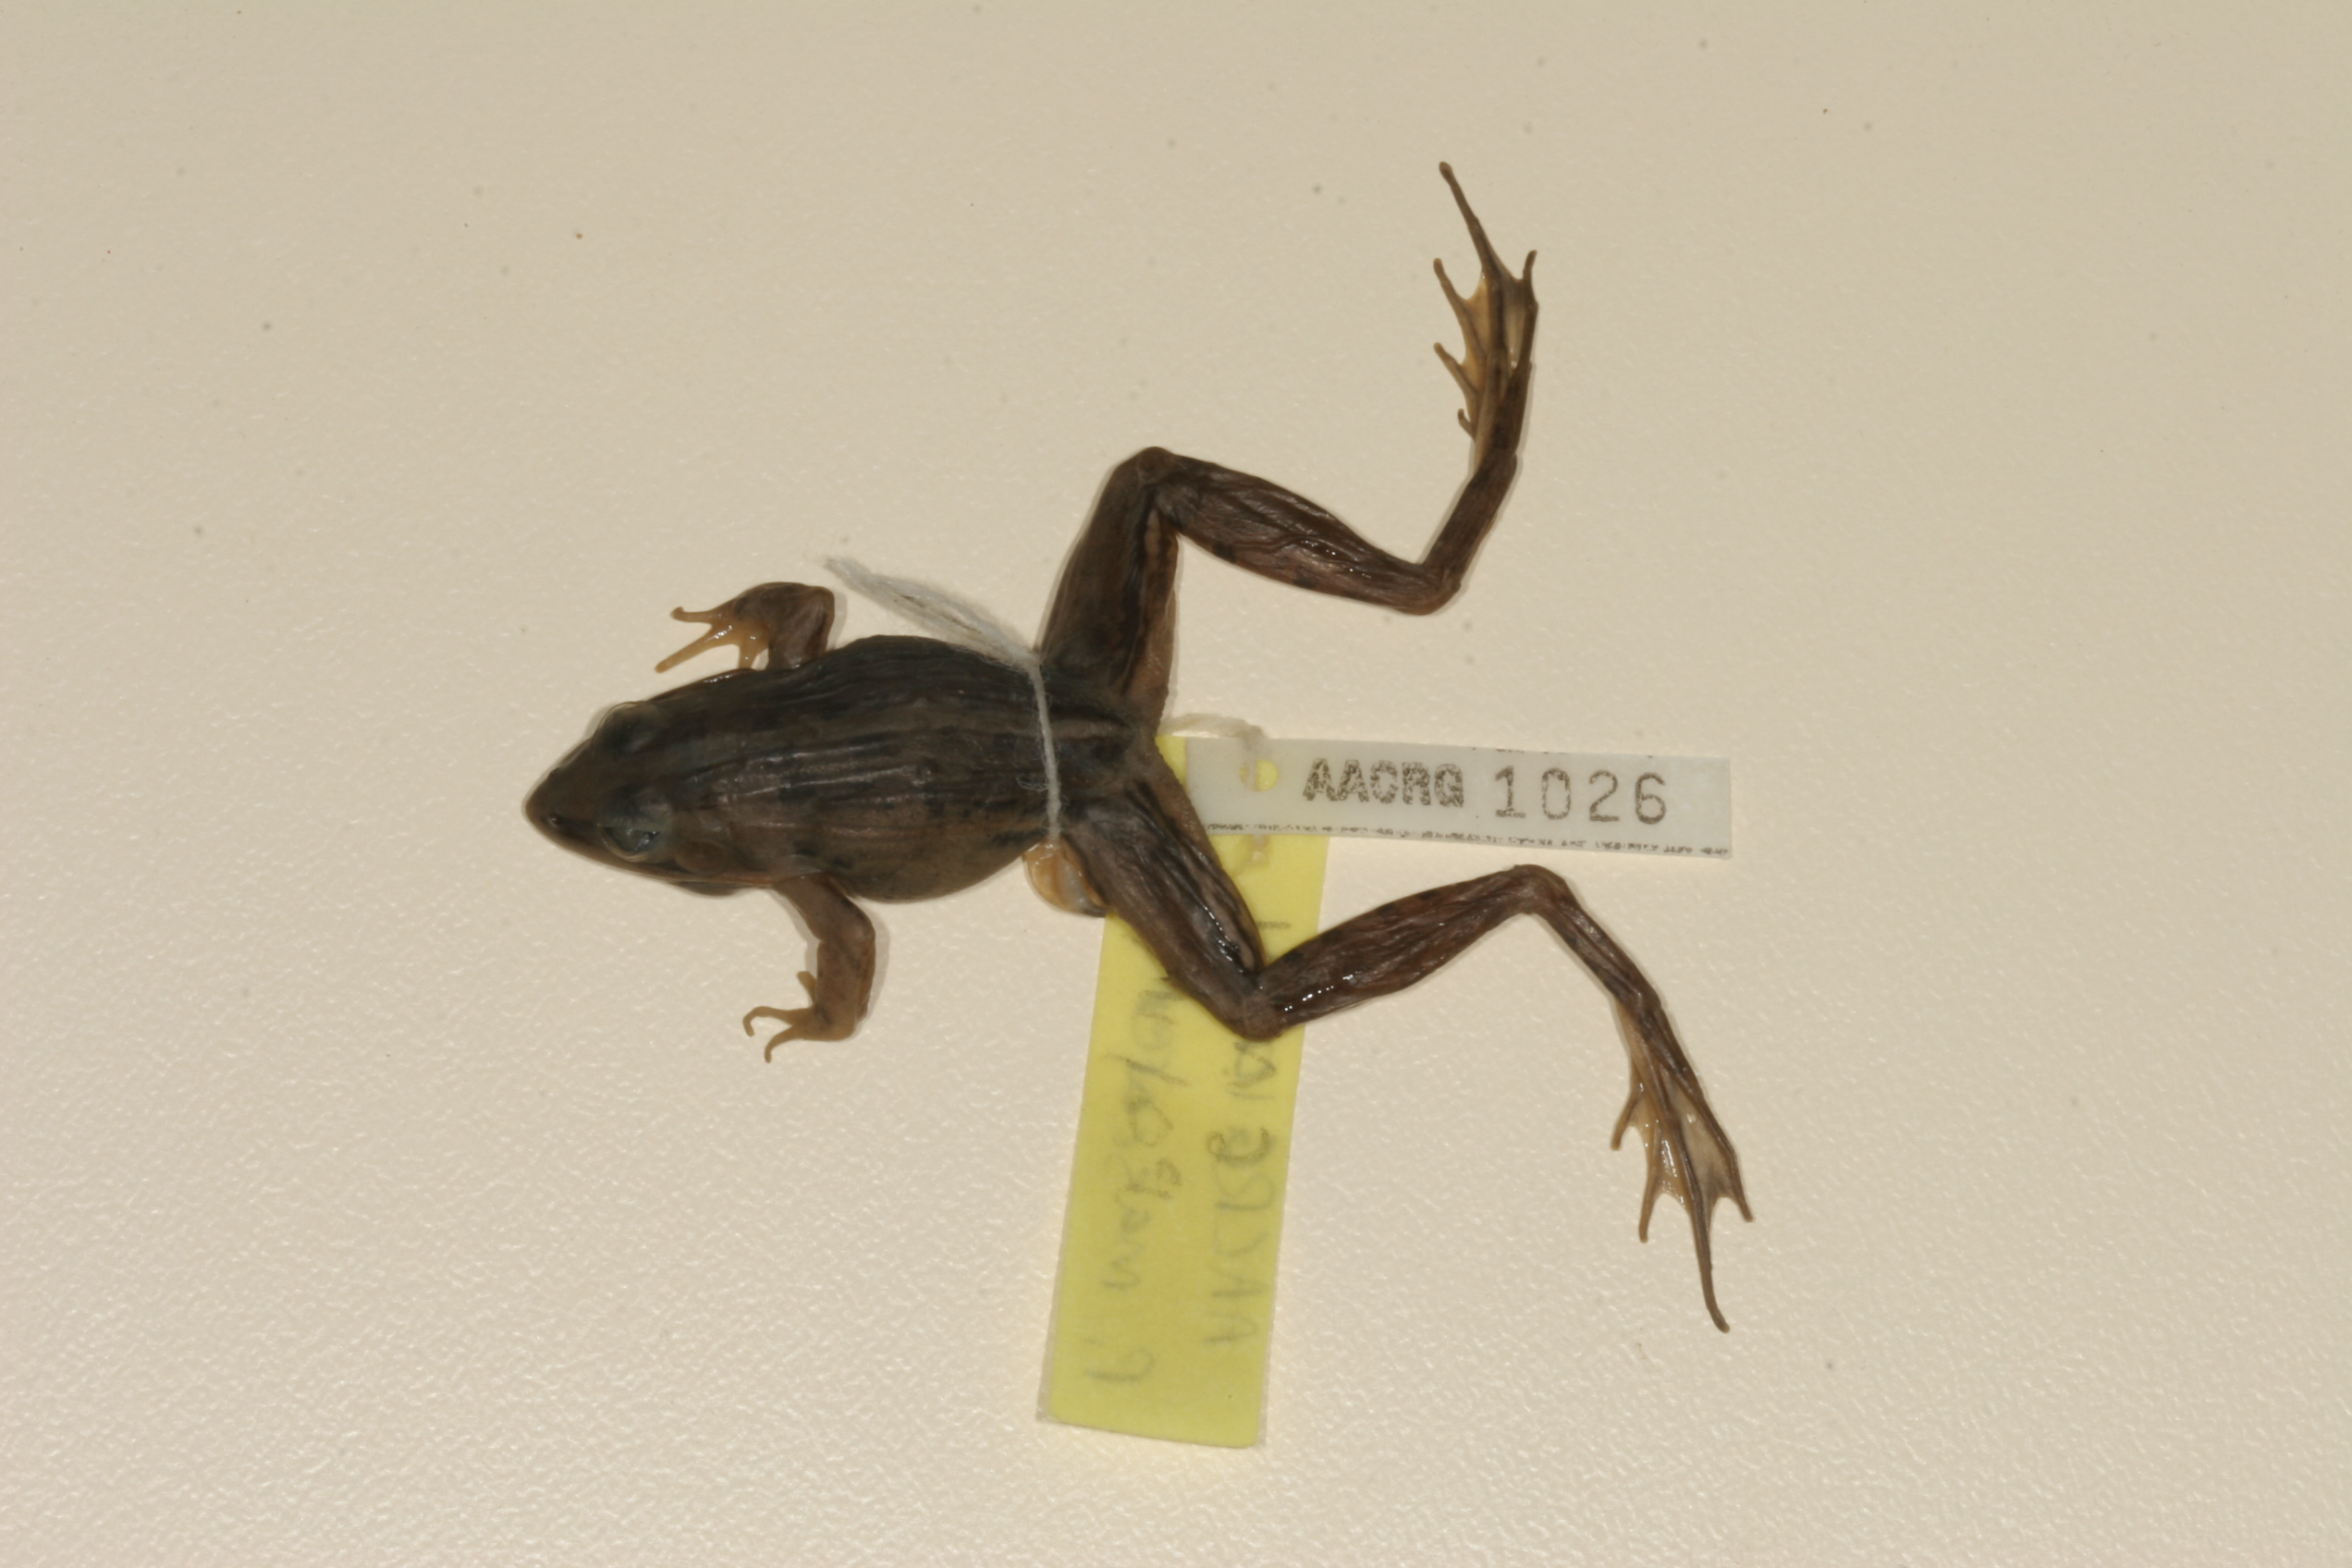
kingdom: Animalia
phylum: Chordata
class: Amphibia
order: Anura
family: Ptychadenidae
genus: Ptychadena
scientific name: Ptychadena mascareniensis
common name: Mascarene grass frog
